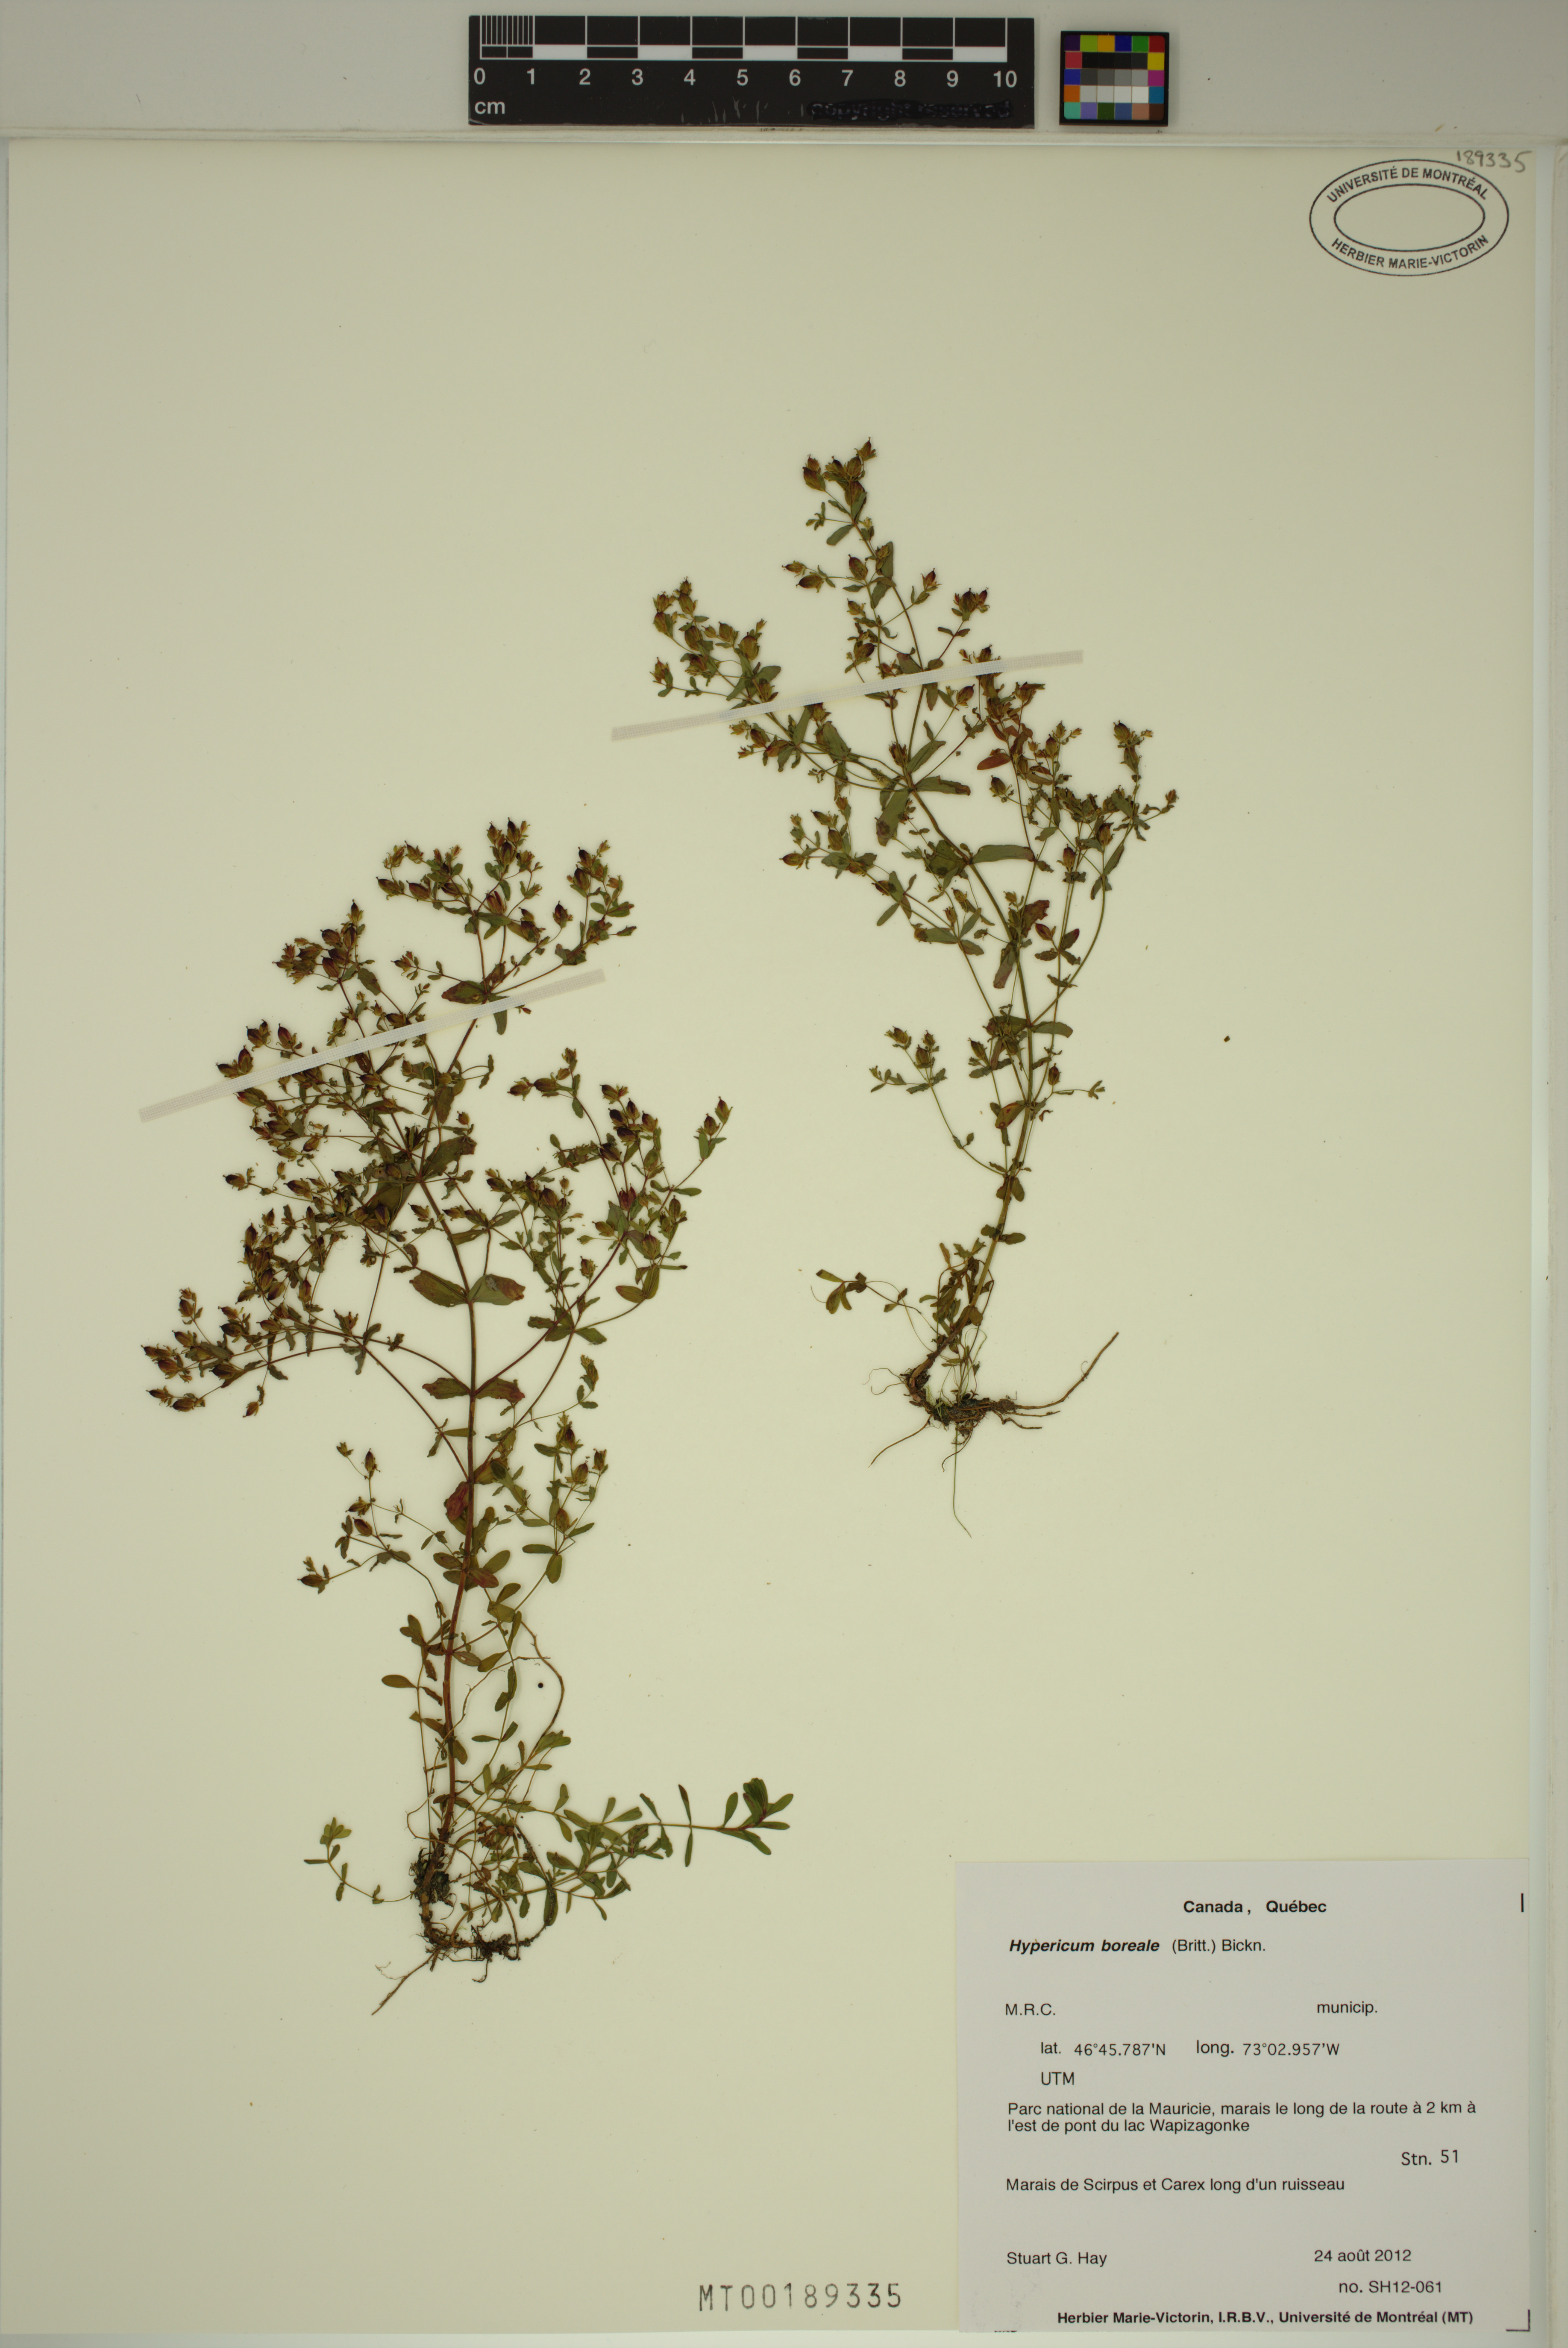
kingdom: Plantae
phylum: Tracheophyta
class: Magnoliopsida
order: Malpighiales
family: Hypericaceae
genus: Hypericum
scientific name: Hypericum boreale
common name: Northern bog st. john's-wort
